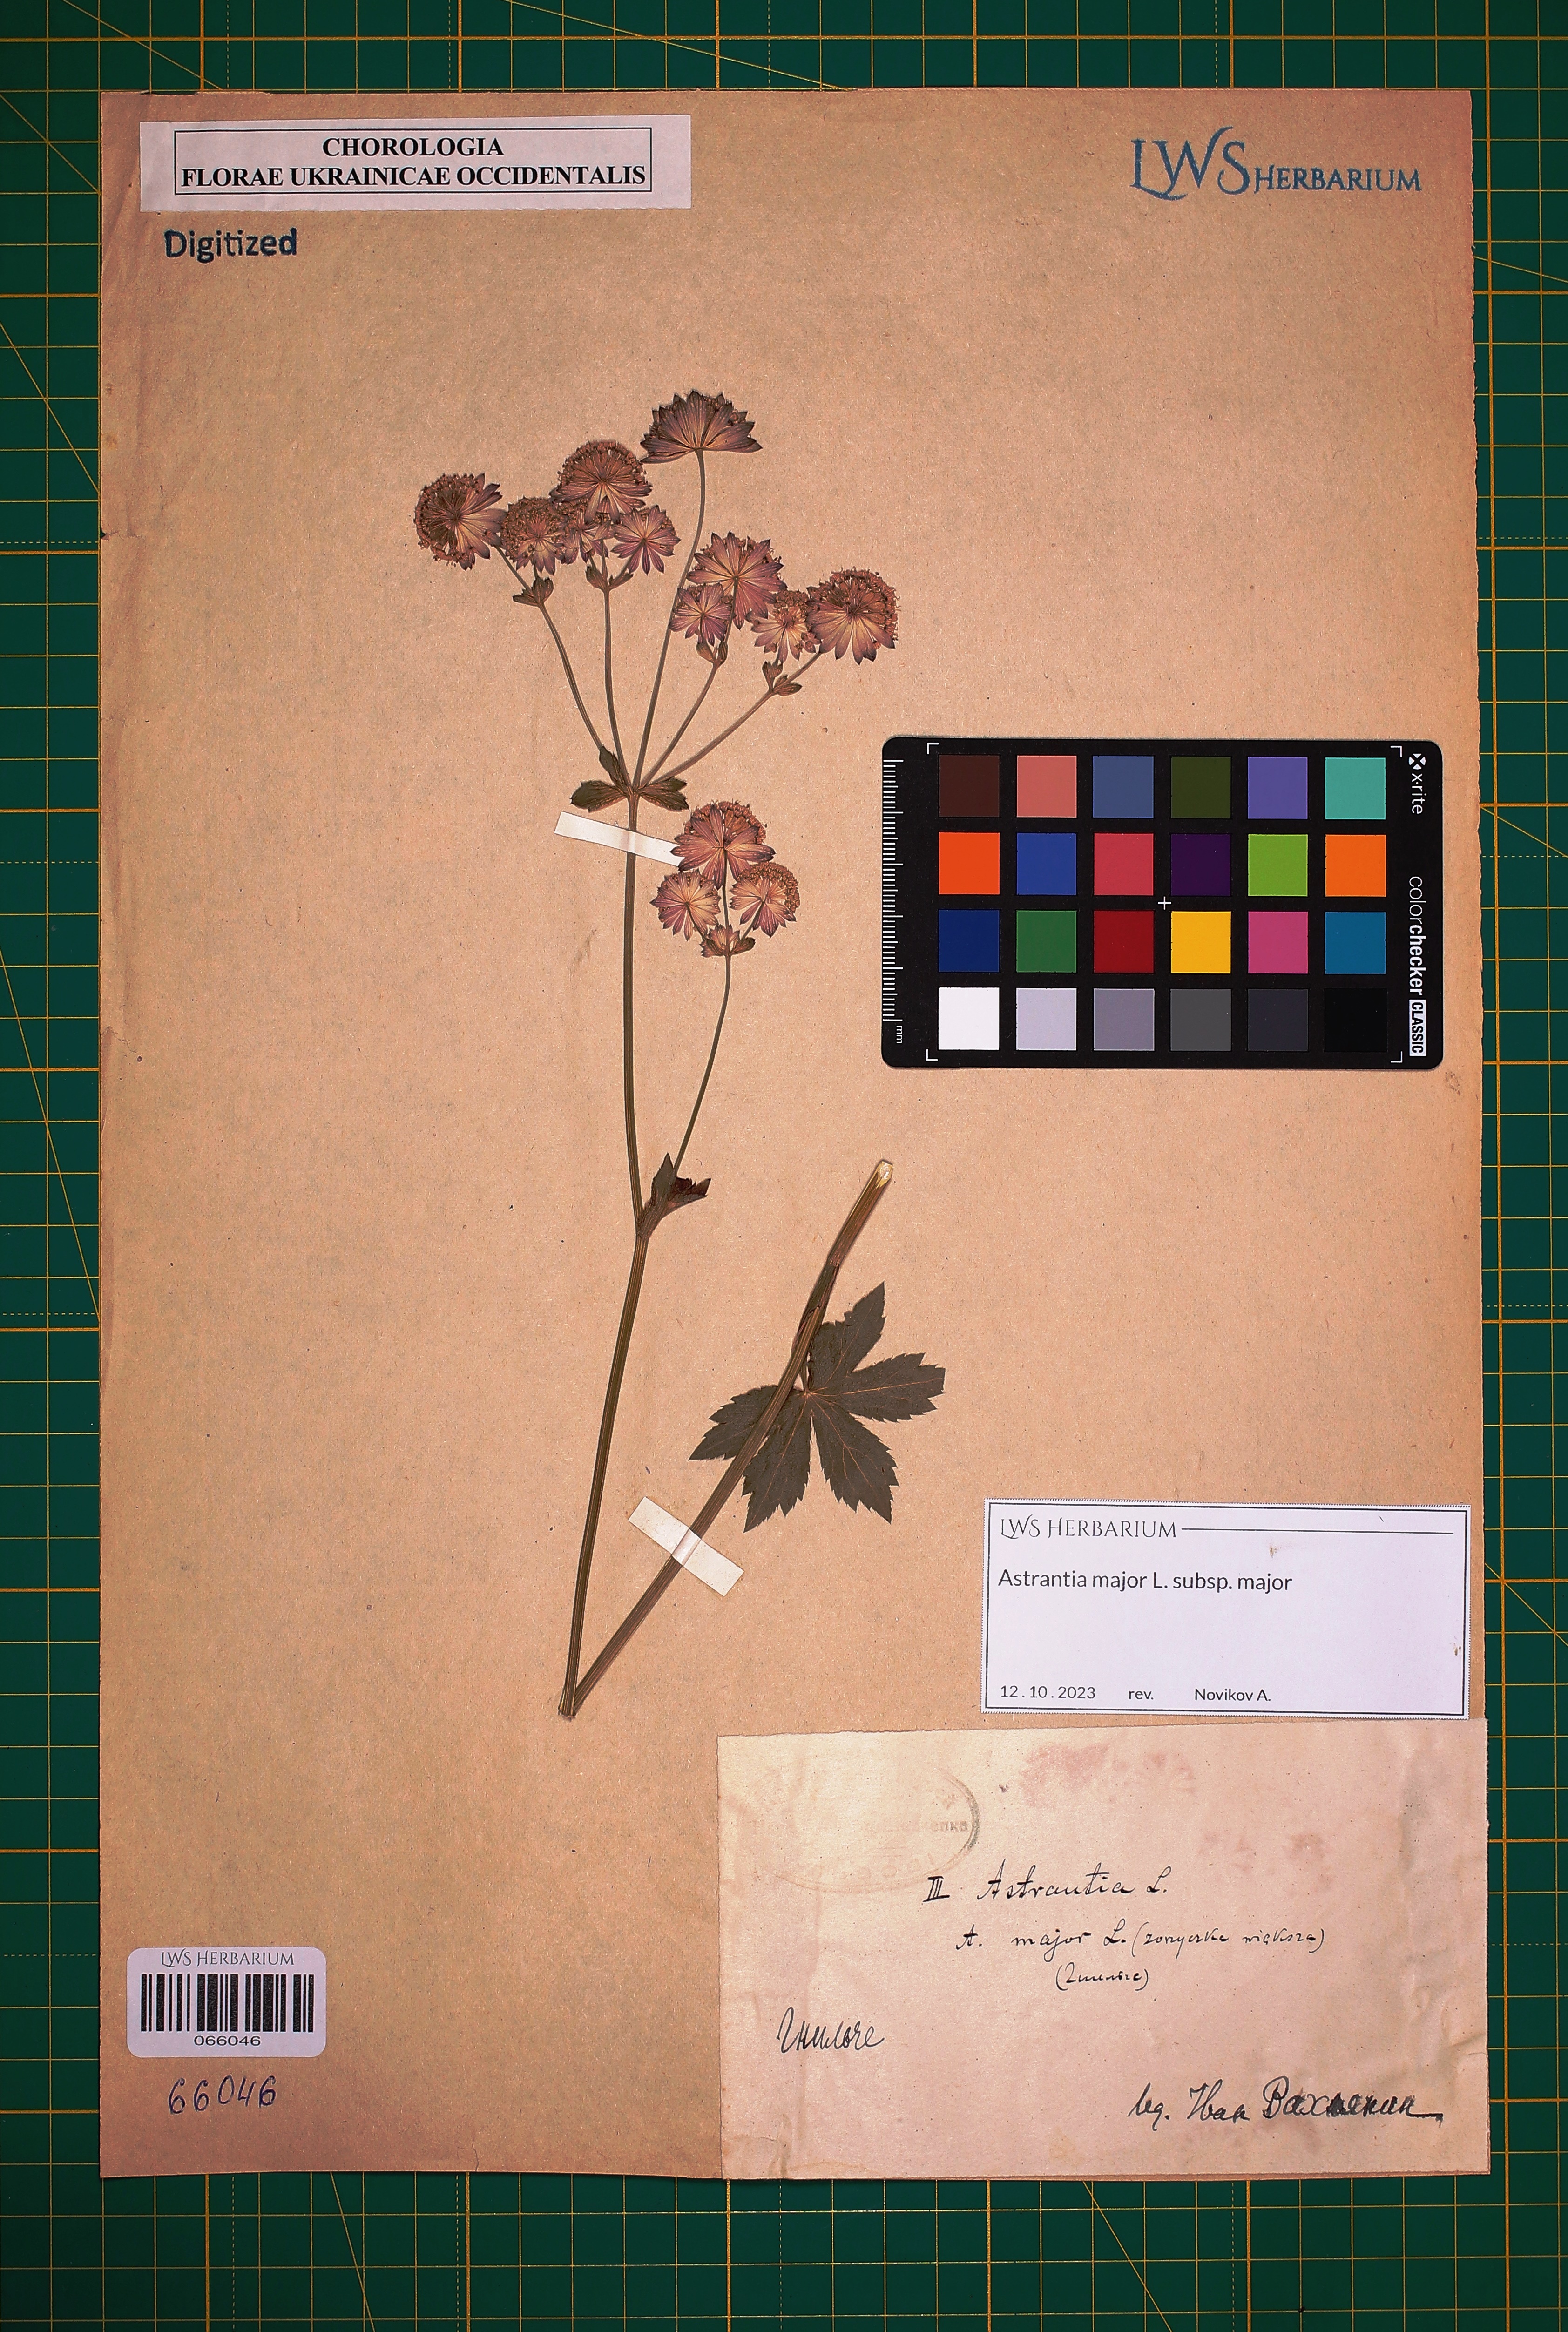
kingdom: Plantae
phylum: Tracheophyta
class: Magnoliopsida
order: Apiales
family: Apiaceae
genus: Astrantia
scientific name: Astrantia major
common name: Greater masterwort
